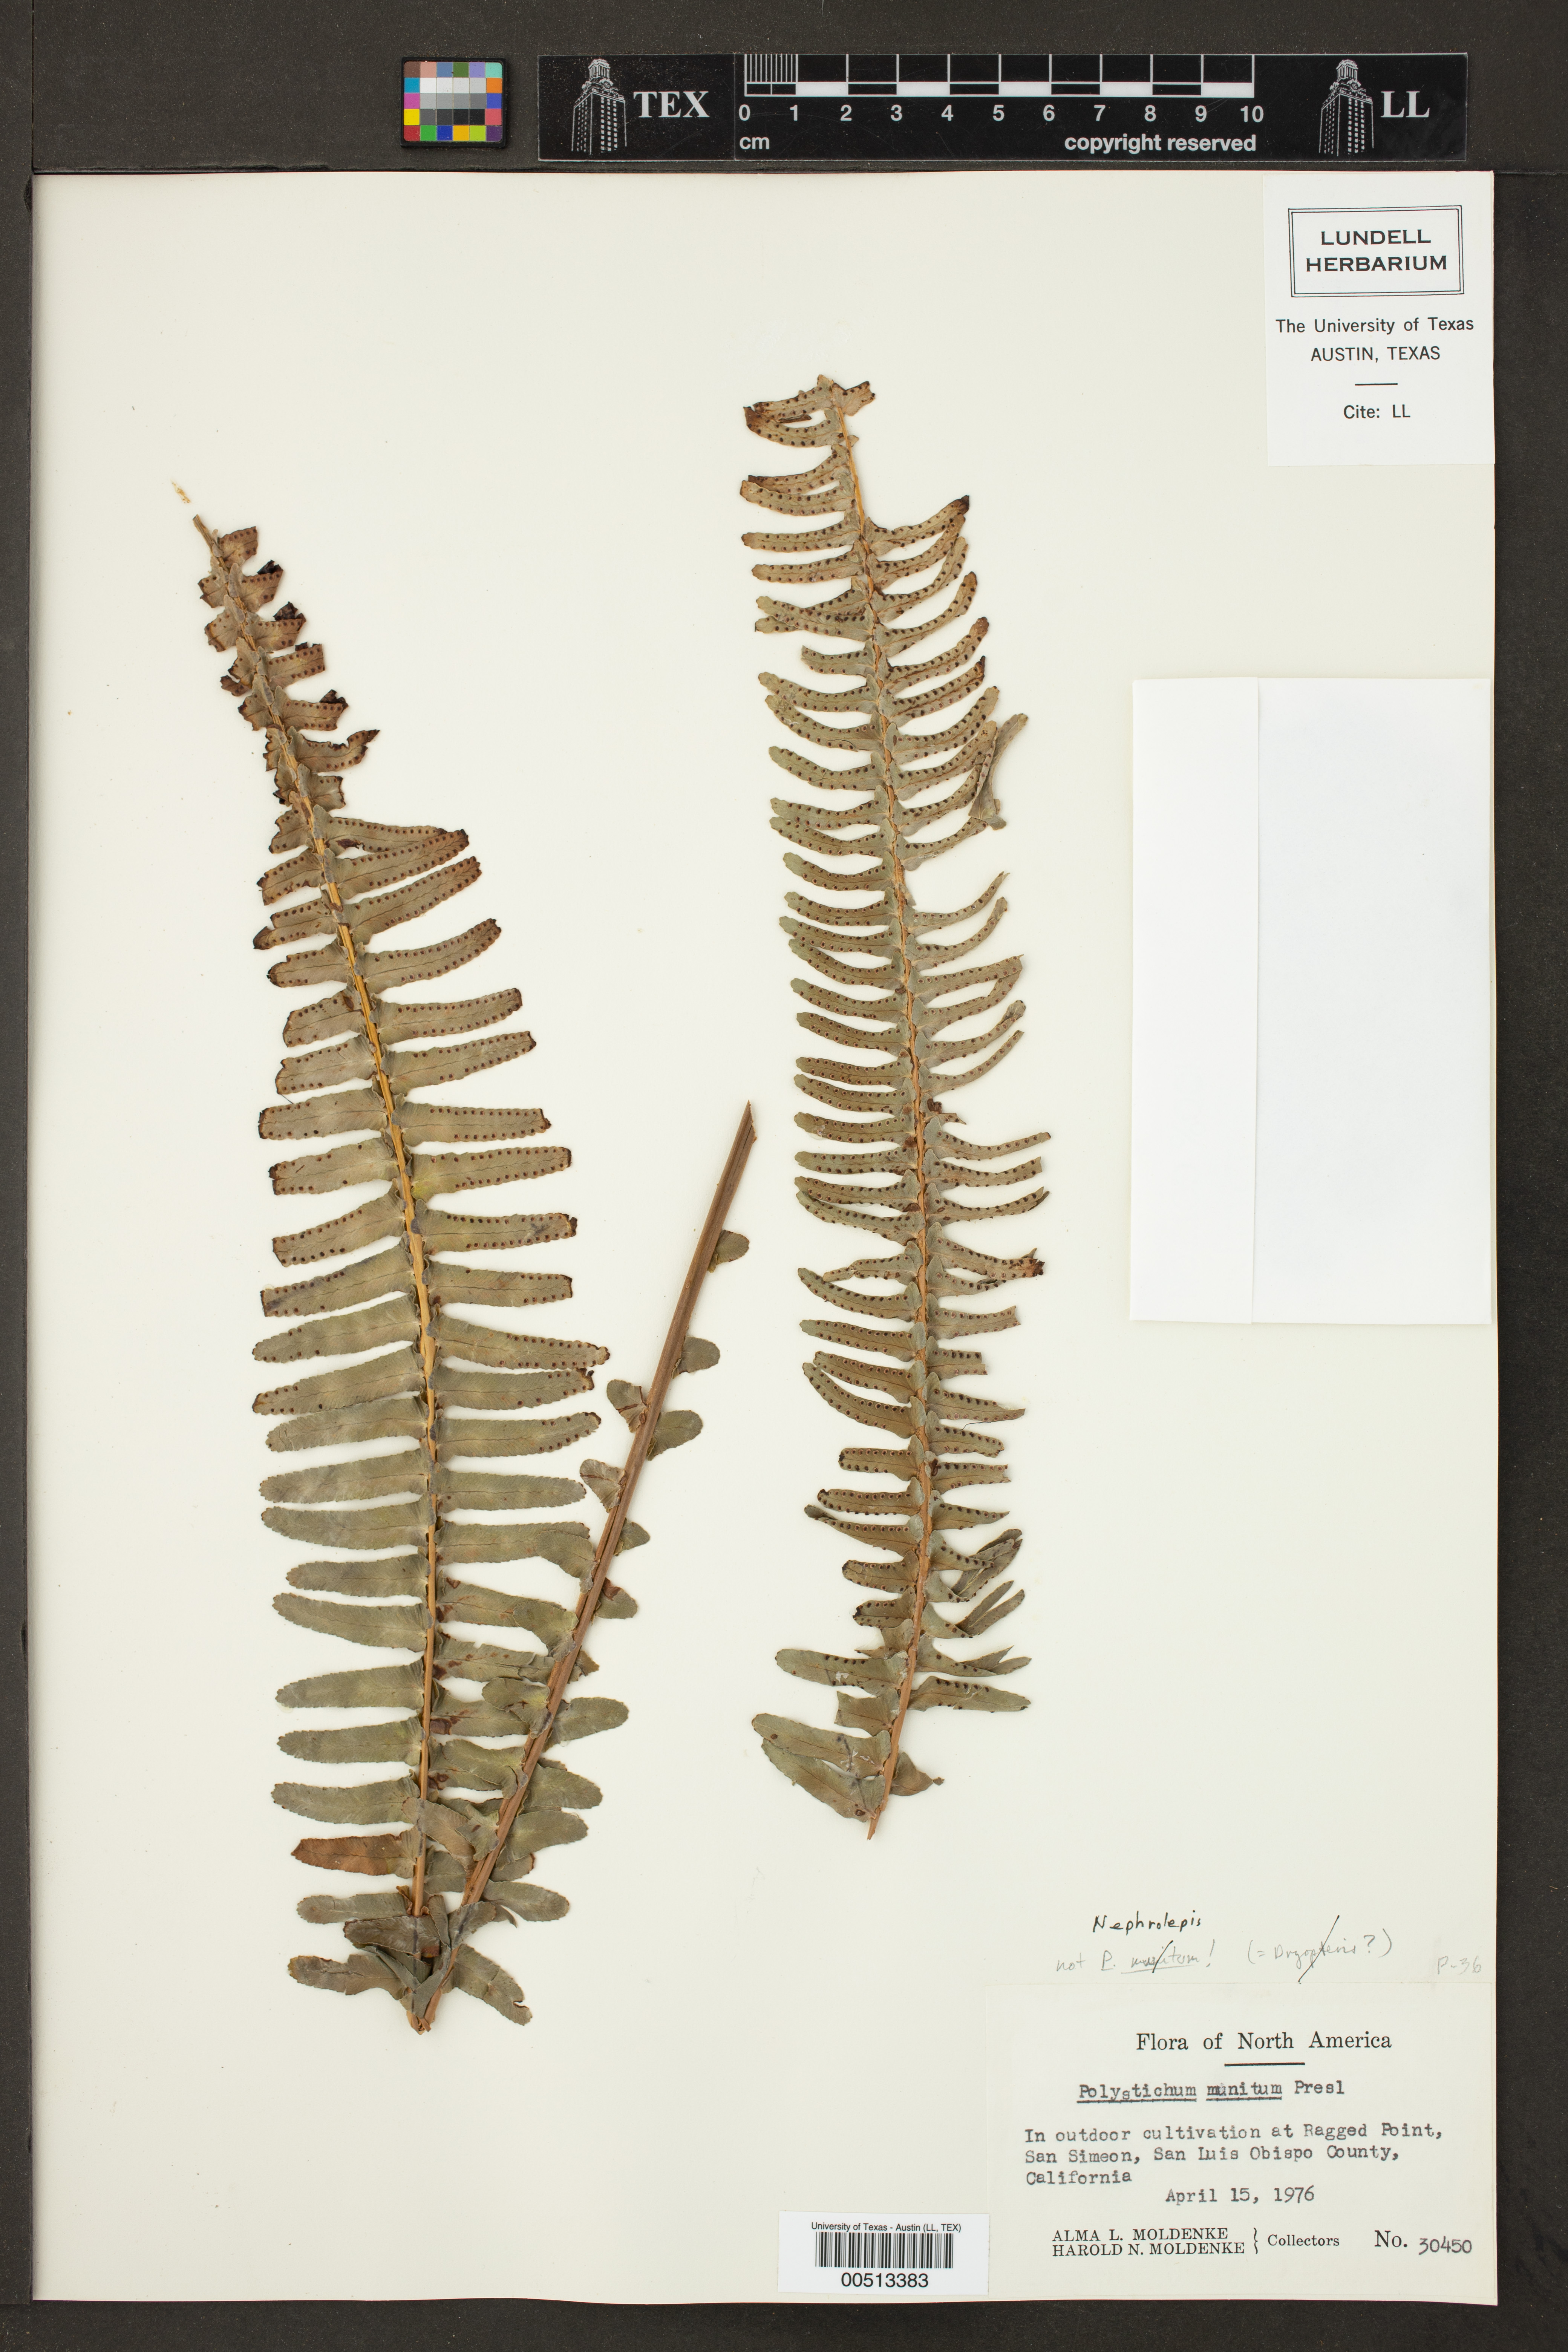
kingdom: Plantae
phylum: Tracheophyta
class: Polypodiopsida
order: Polypodiales
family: Nephrolepidaceae
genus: Nephrolepis
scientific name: Nephrolepis
